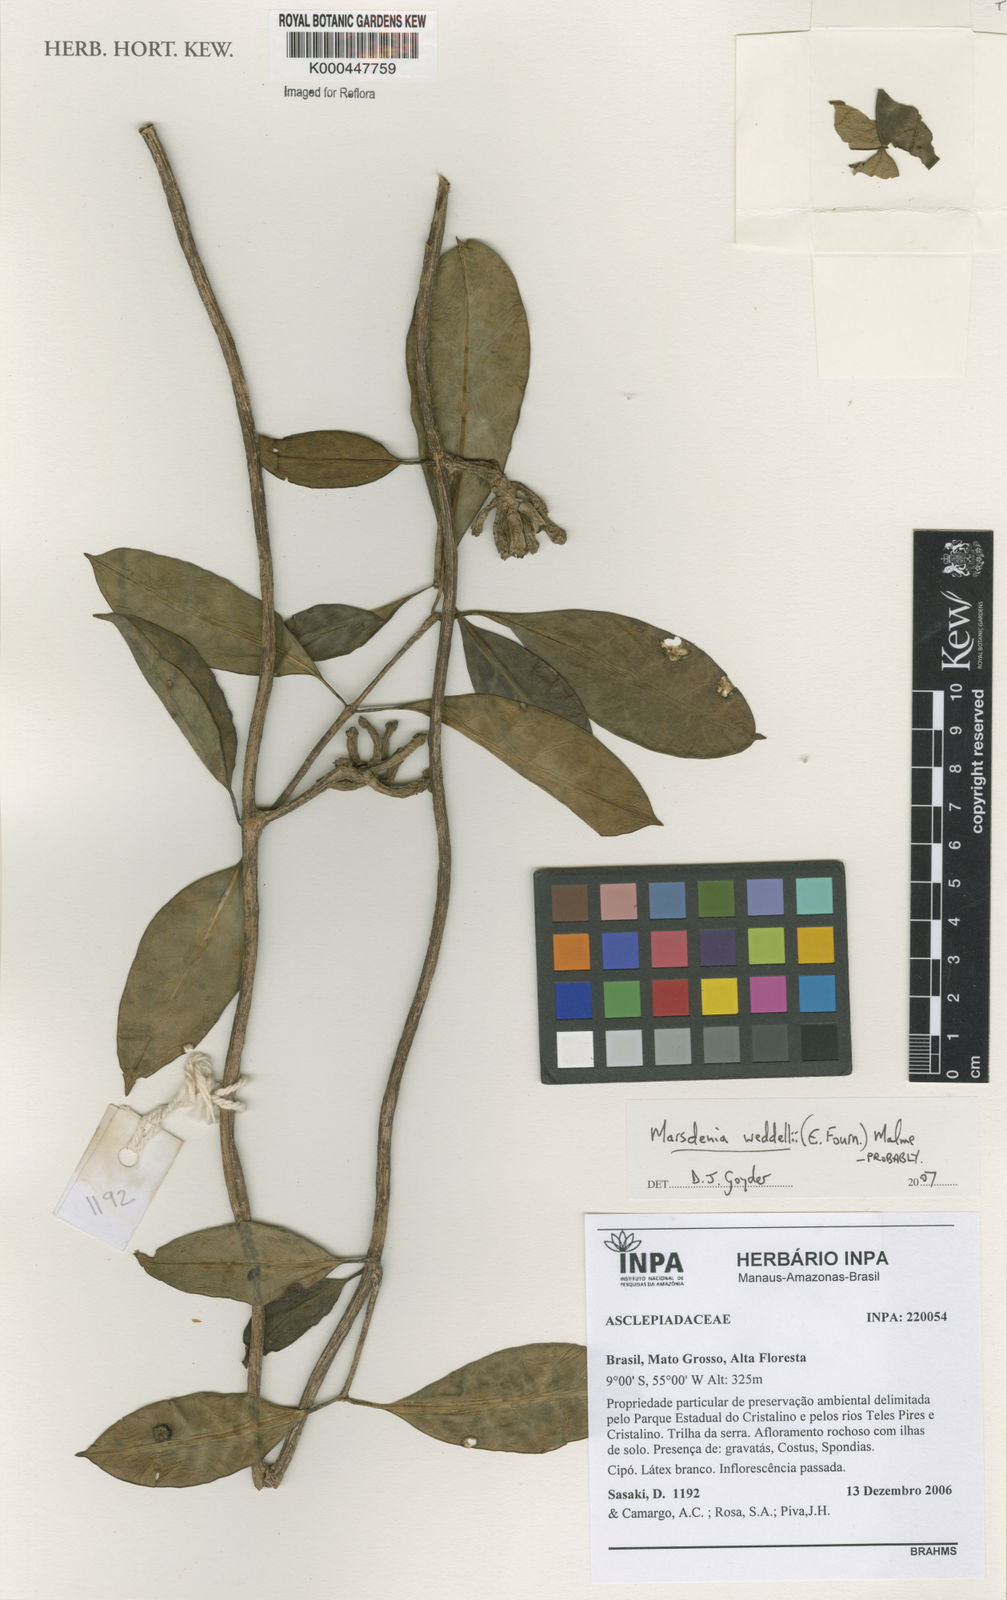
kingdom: Plantae
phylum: Tracheophyta
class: Magnoliopsida
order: Gentianales
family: Apocynaceae
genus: Ruehssia
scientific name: Ruehssia weddellii
